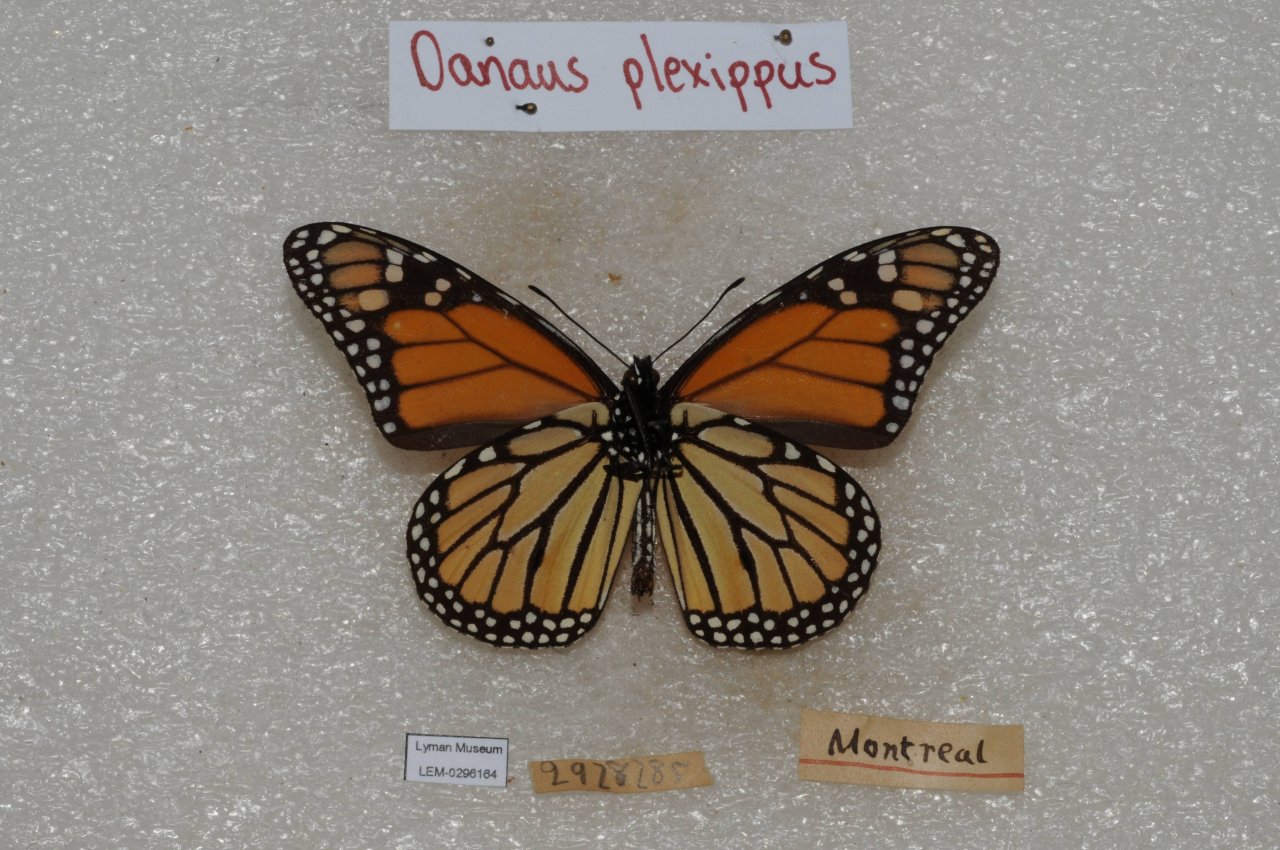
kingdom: Animalia
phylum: Arthropoda
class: Insecta
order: Lepidoptera
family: Nymphalidae
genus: Danaus
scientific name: Danaus plexippus
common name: Monarch
